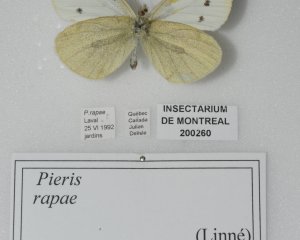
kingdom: Animalia
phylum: Arthropoda
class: Insecta
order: Lepidoptera
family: Pieridae
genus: Pieris
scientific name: Pieris rapae
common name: Cabbage White
